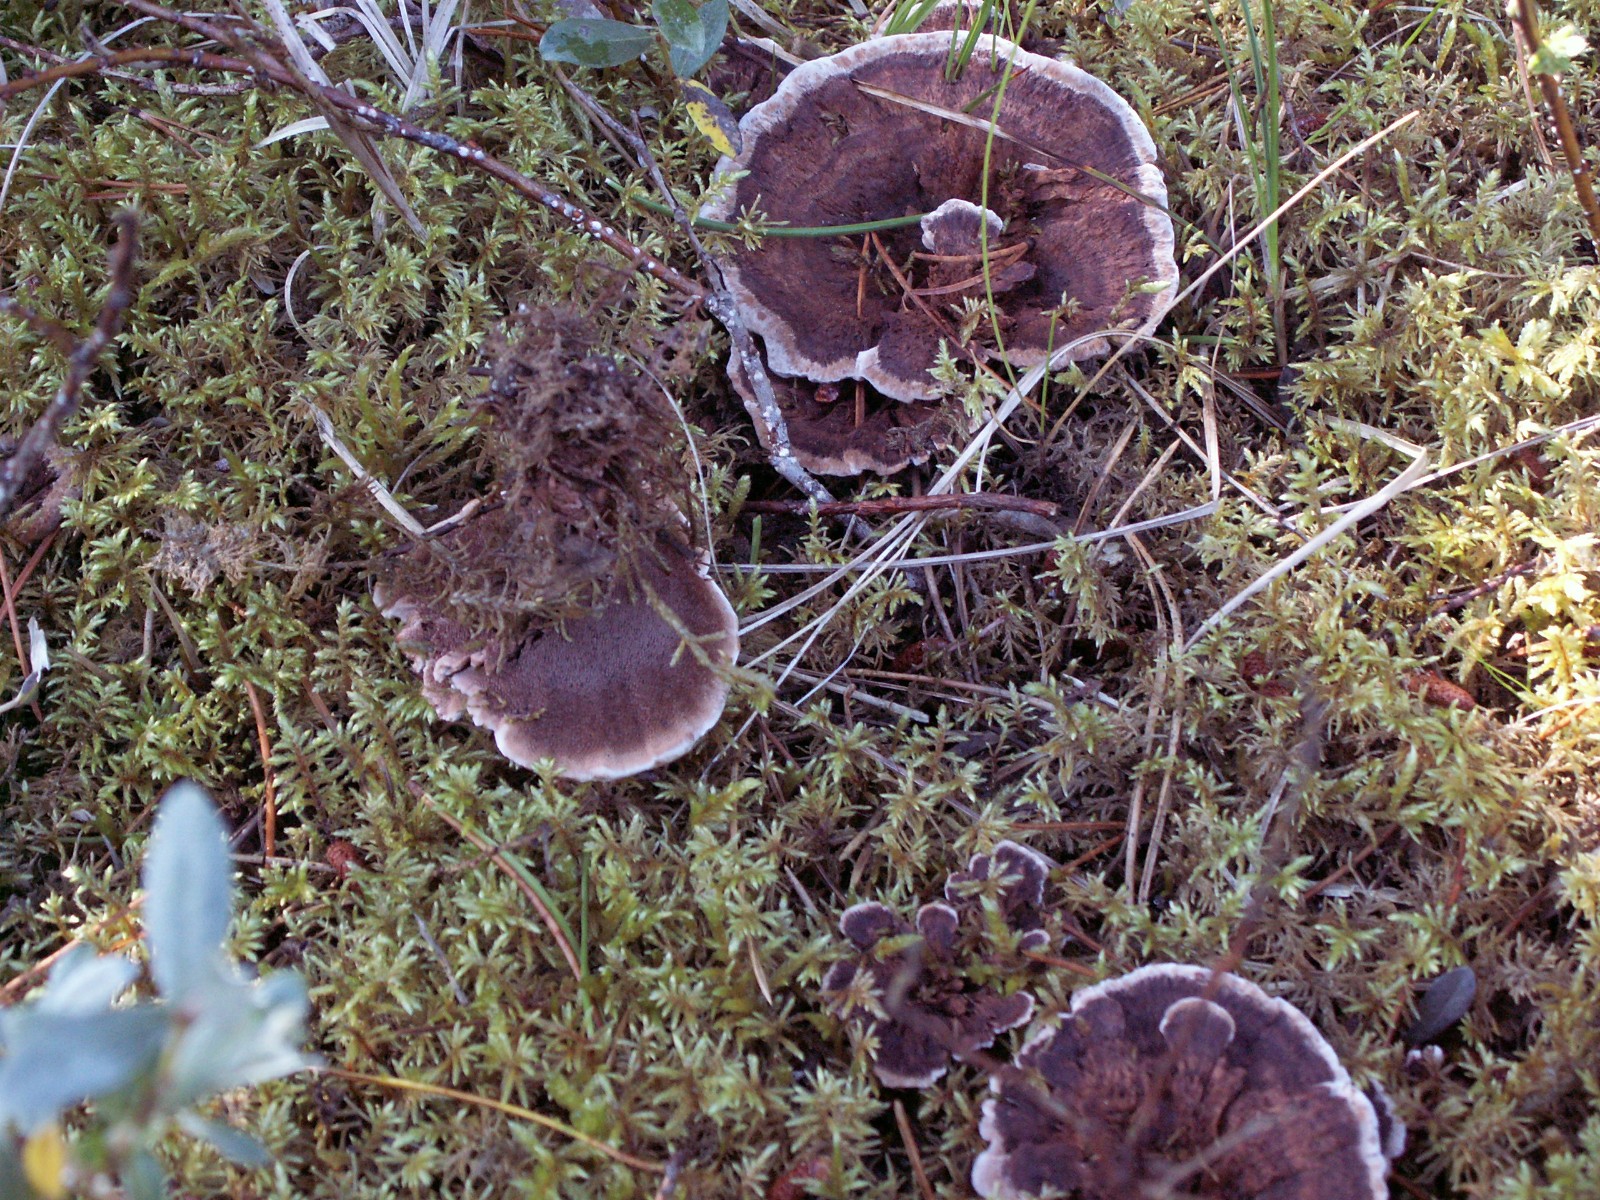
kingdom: Fungi
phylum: Basidiomycota
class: Agaricomycetes
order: Thelephorales
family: Bankeraceae
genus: Hydnellum
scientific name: Hydnellum concrescens
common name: bæltet korkpigsvamp
